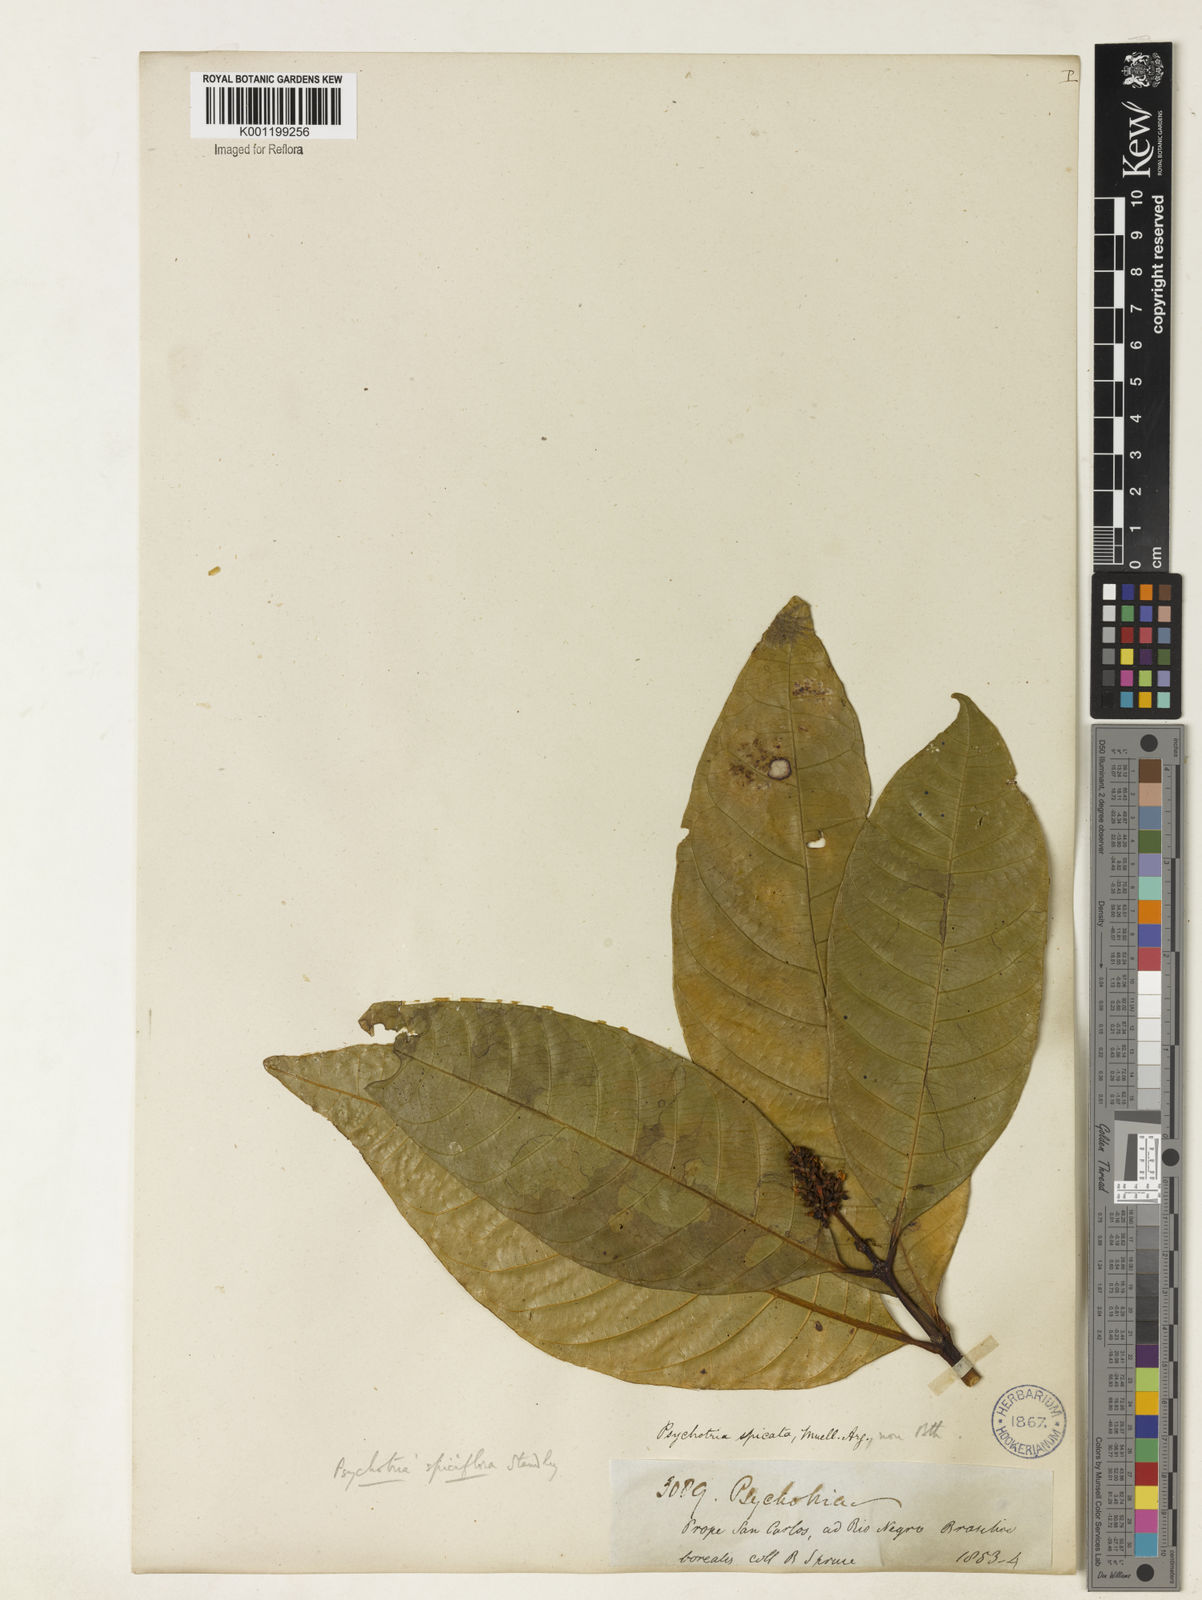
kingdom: Plantae
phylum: Tracheophyta
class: Magnoliopsida
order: Gentianales
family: Rubiaceae
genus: Palicourea
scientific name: Palicourea spicata
